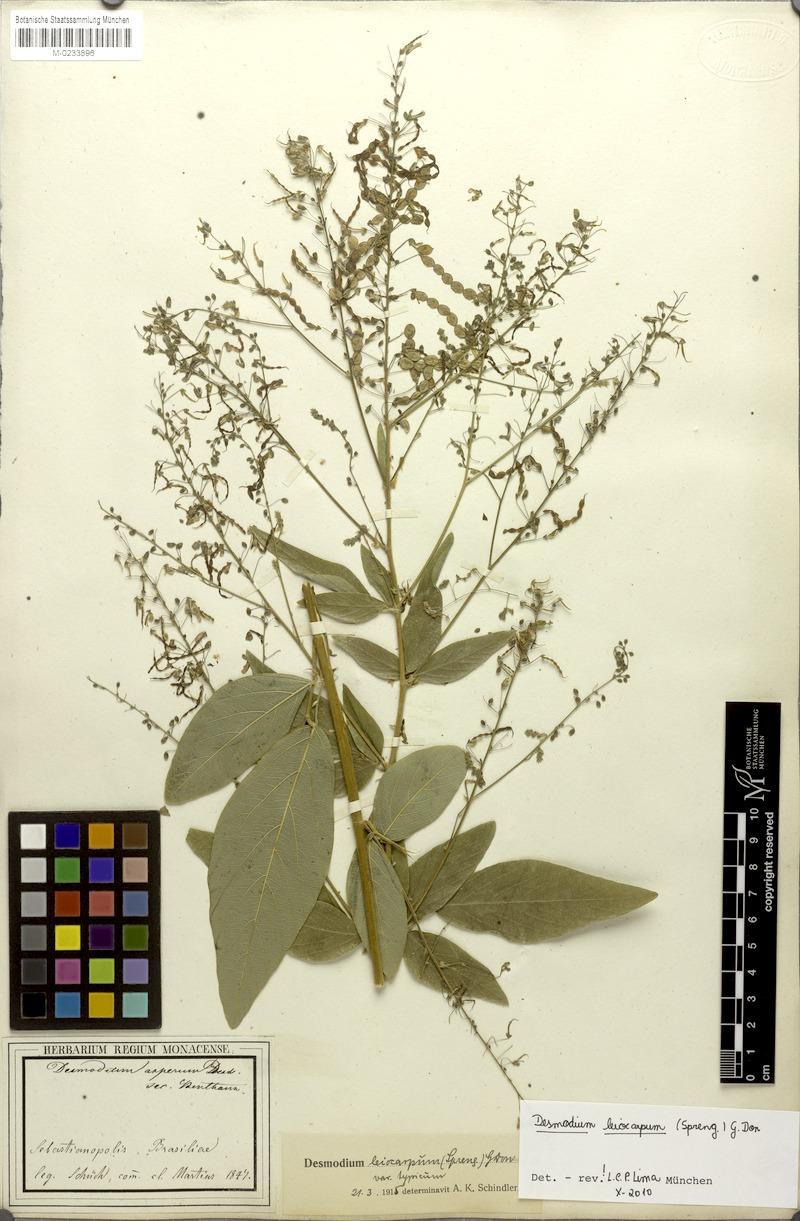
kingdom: Plantae
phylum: Tracheophyta
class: Magnoliopsida
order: Fabales
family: Fabaceae
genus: Desmodium
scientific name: Desmodium leiocarpum
